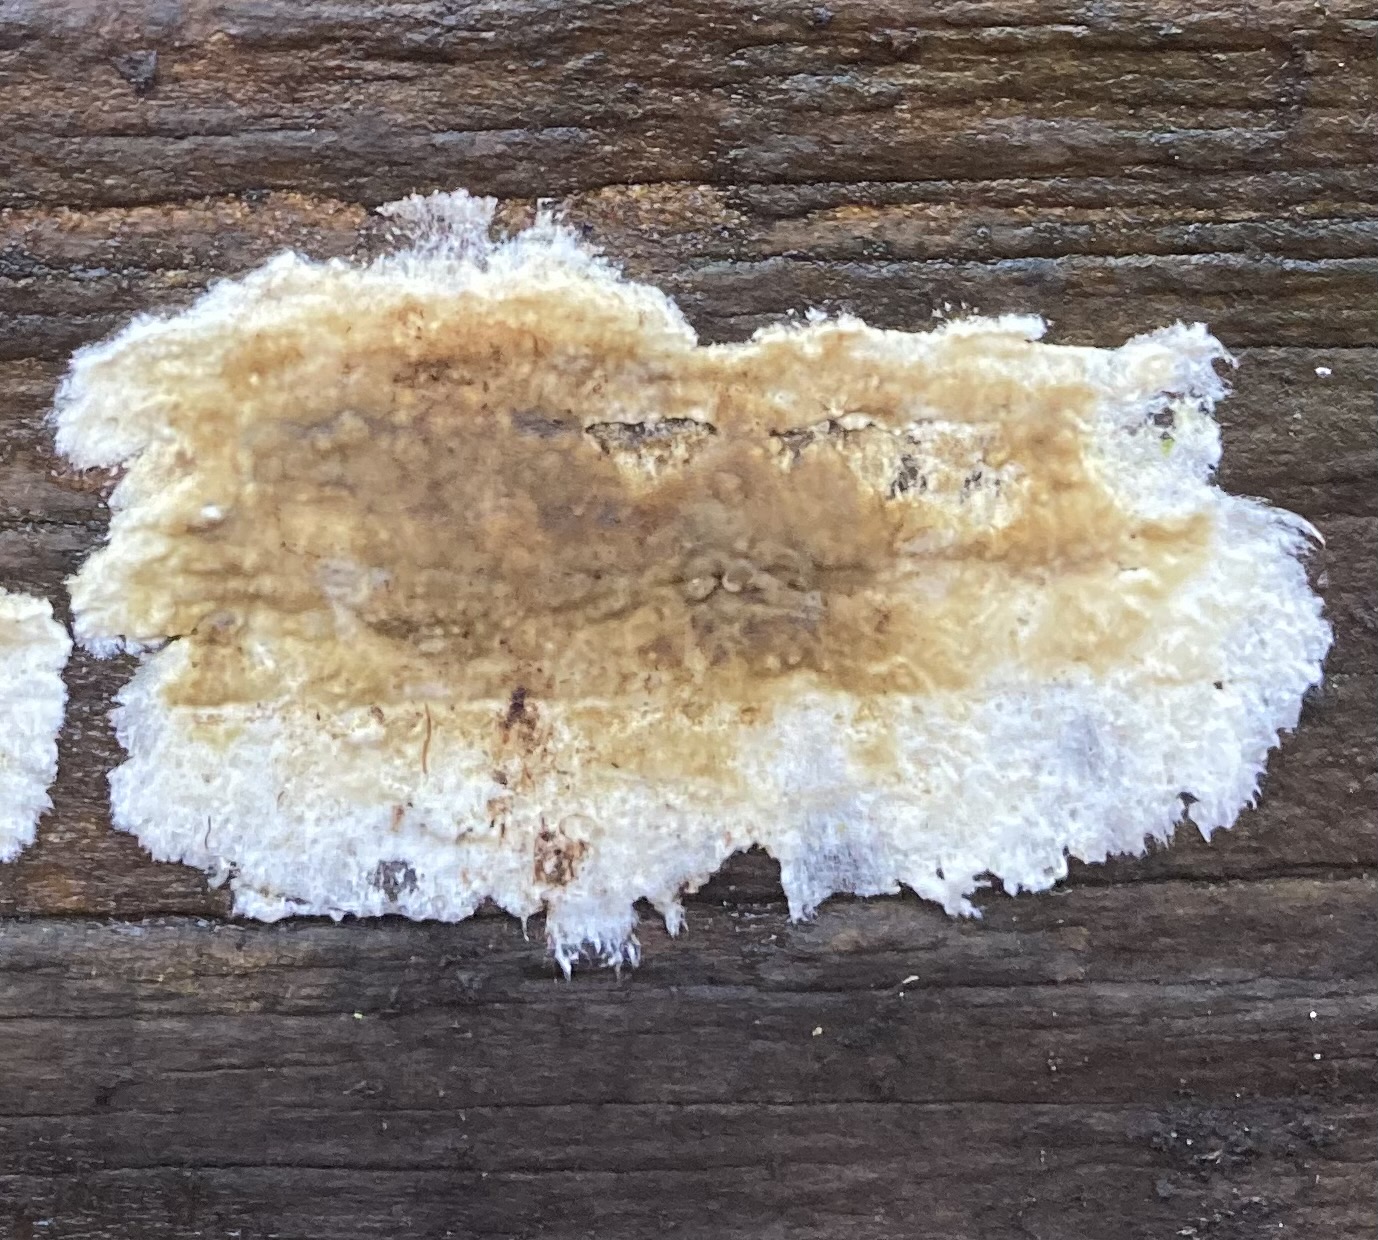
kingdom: Fungi
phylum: Basidiomycota
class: Agaricomycetes
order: Boletales
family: Coniophoraceae
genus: Coniophora
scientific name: Coniophora puteana
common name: gul tømmersvamp
